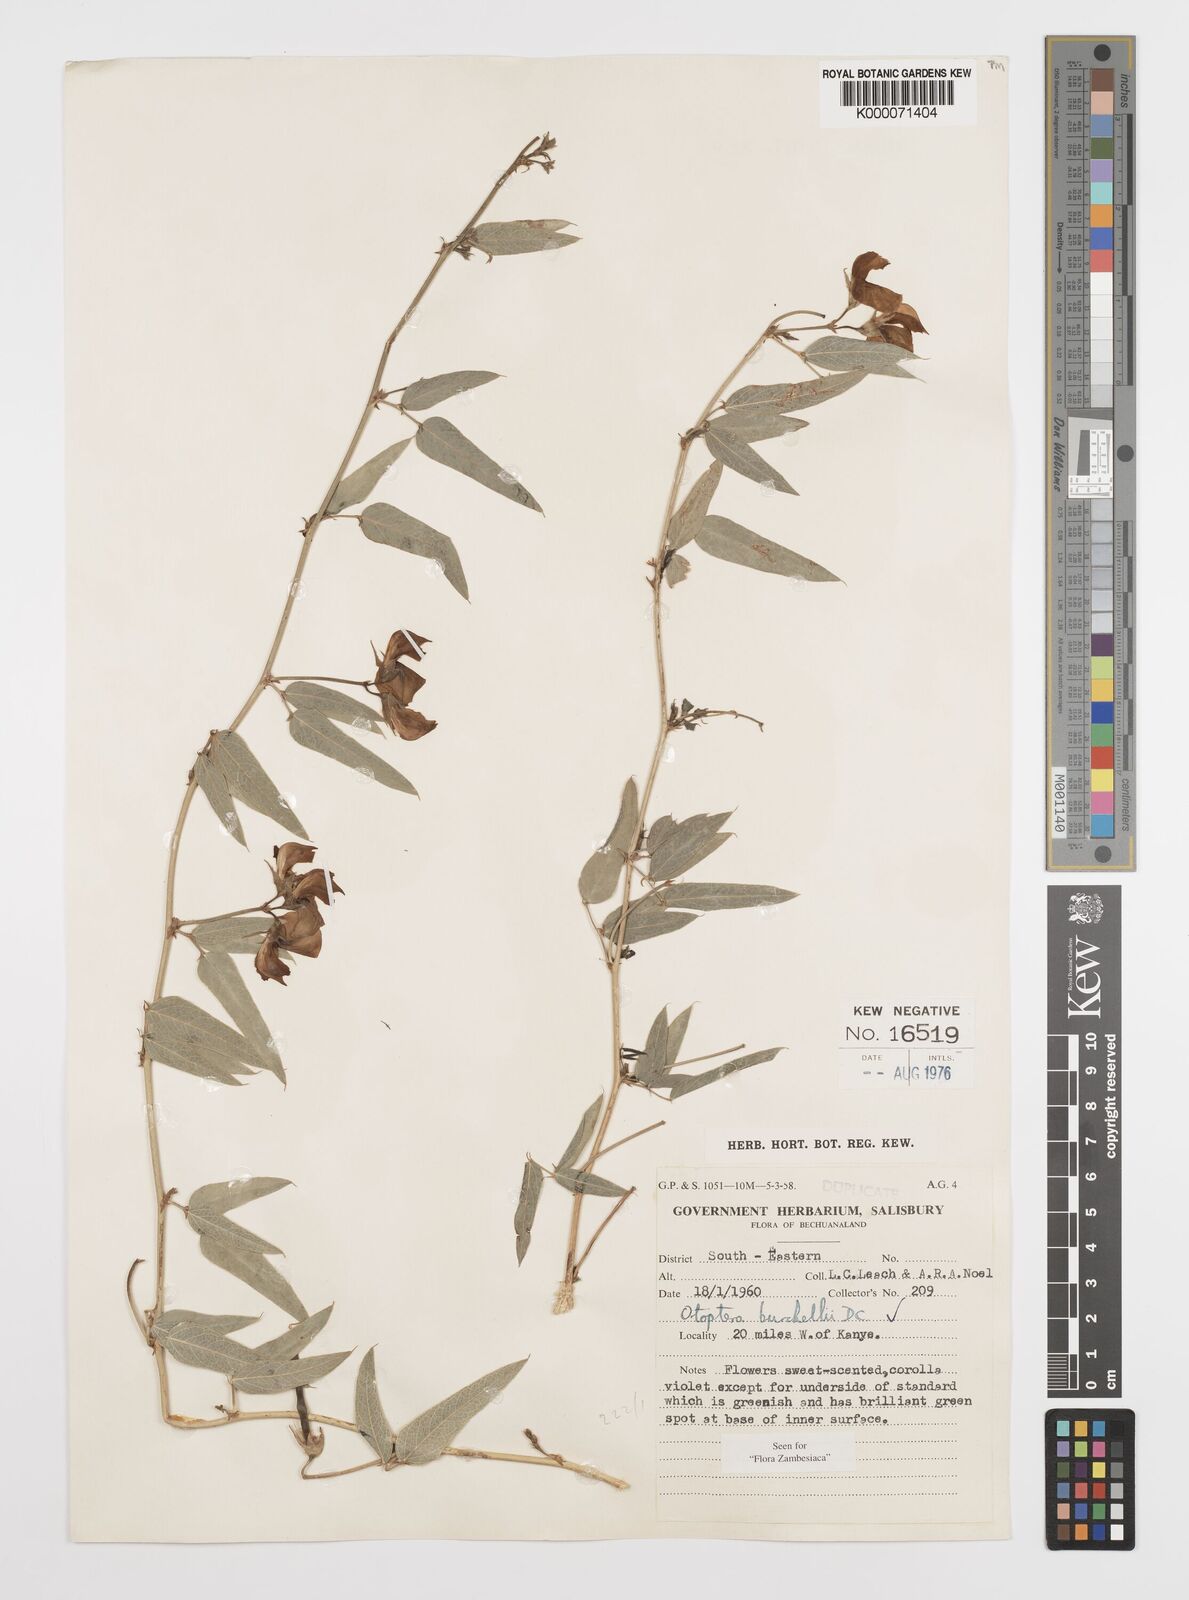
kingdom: Plantae
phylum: Tracheophyta
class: Magnoliopsida
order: Fabales
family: Fabaceae
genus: Otoptera
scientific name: Otoptera burchellii
